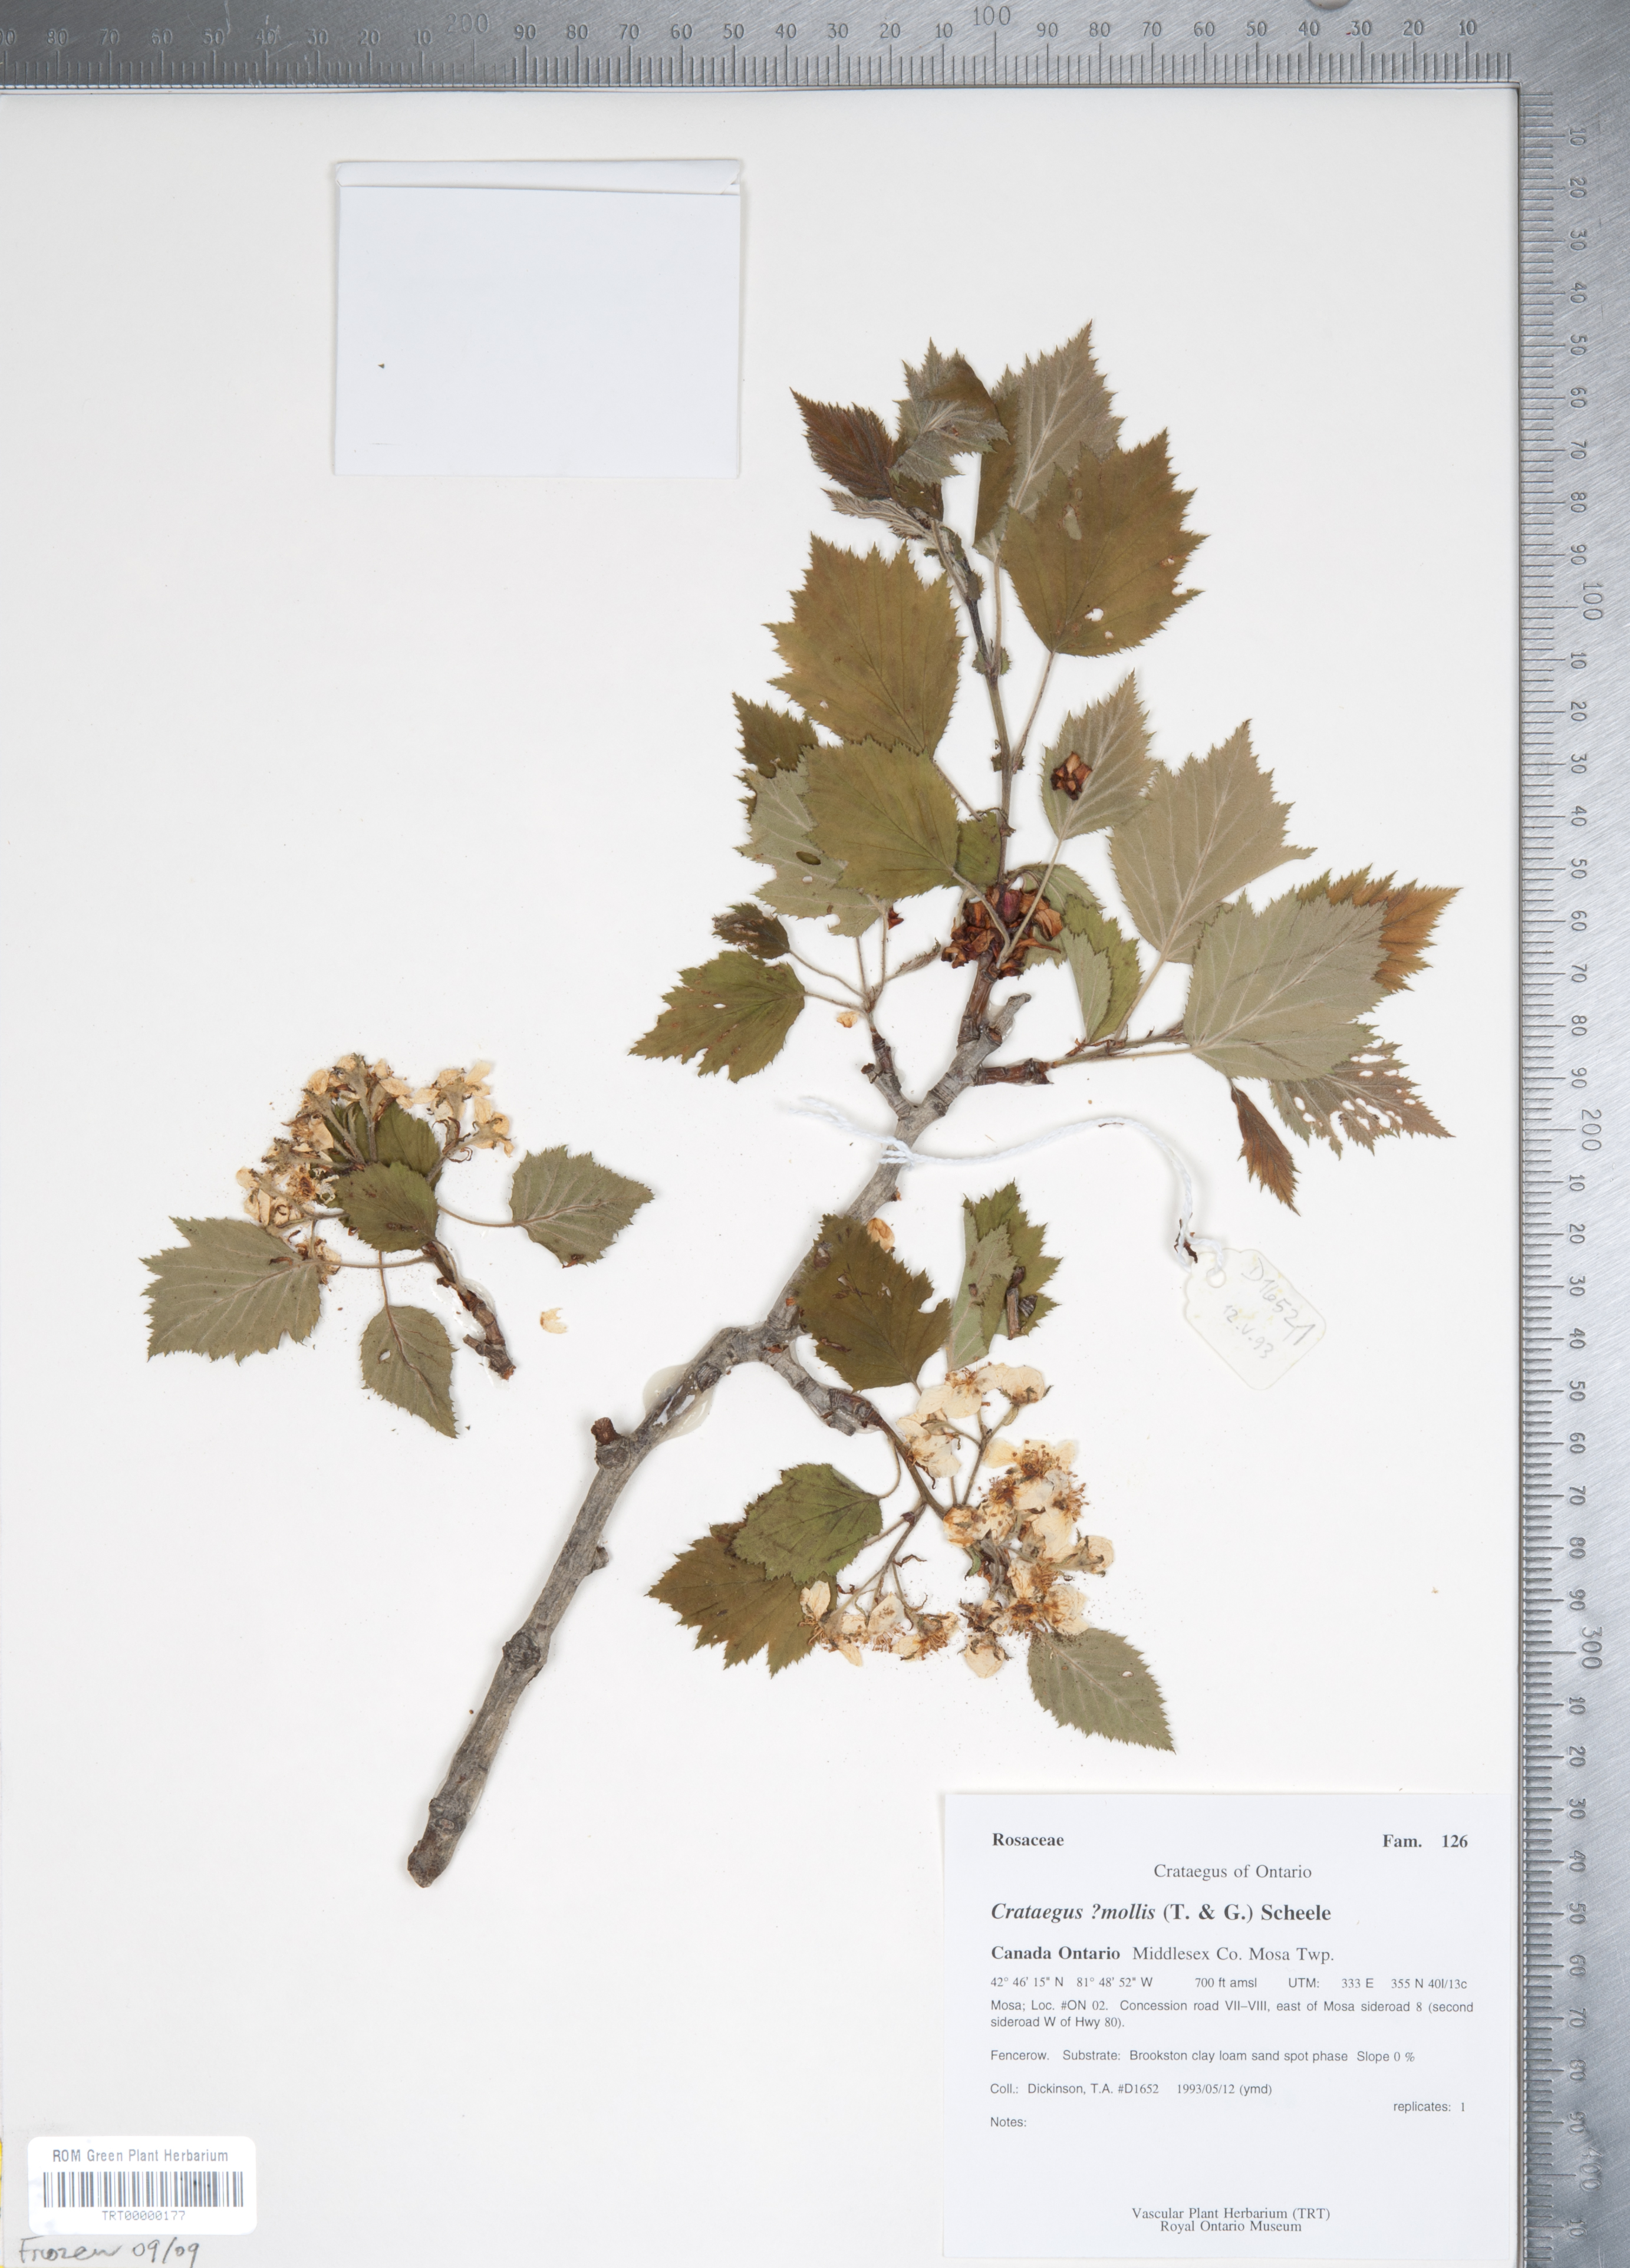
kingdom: Plantae
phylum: Tracheophyta
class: Magnoliopsida
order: Rosales
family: Rosaceae
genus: Crataegus
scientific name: Crataegus mollis
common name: Downy hawthorn
